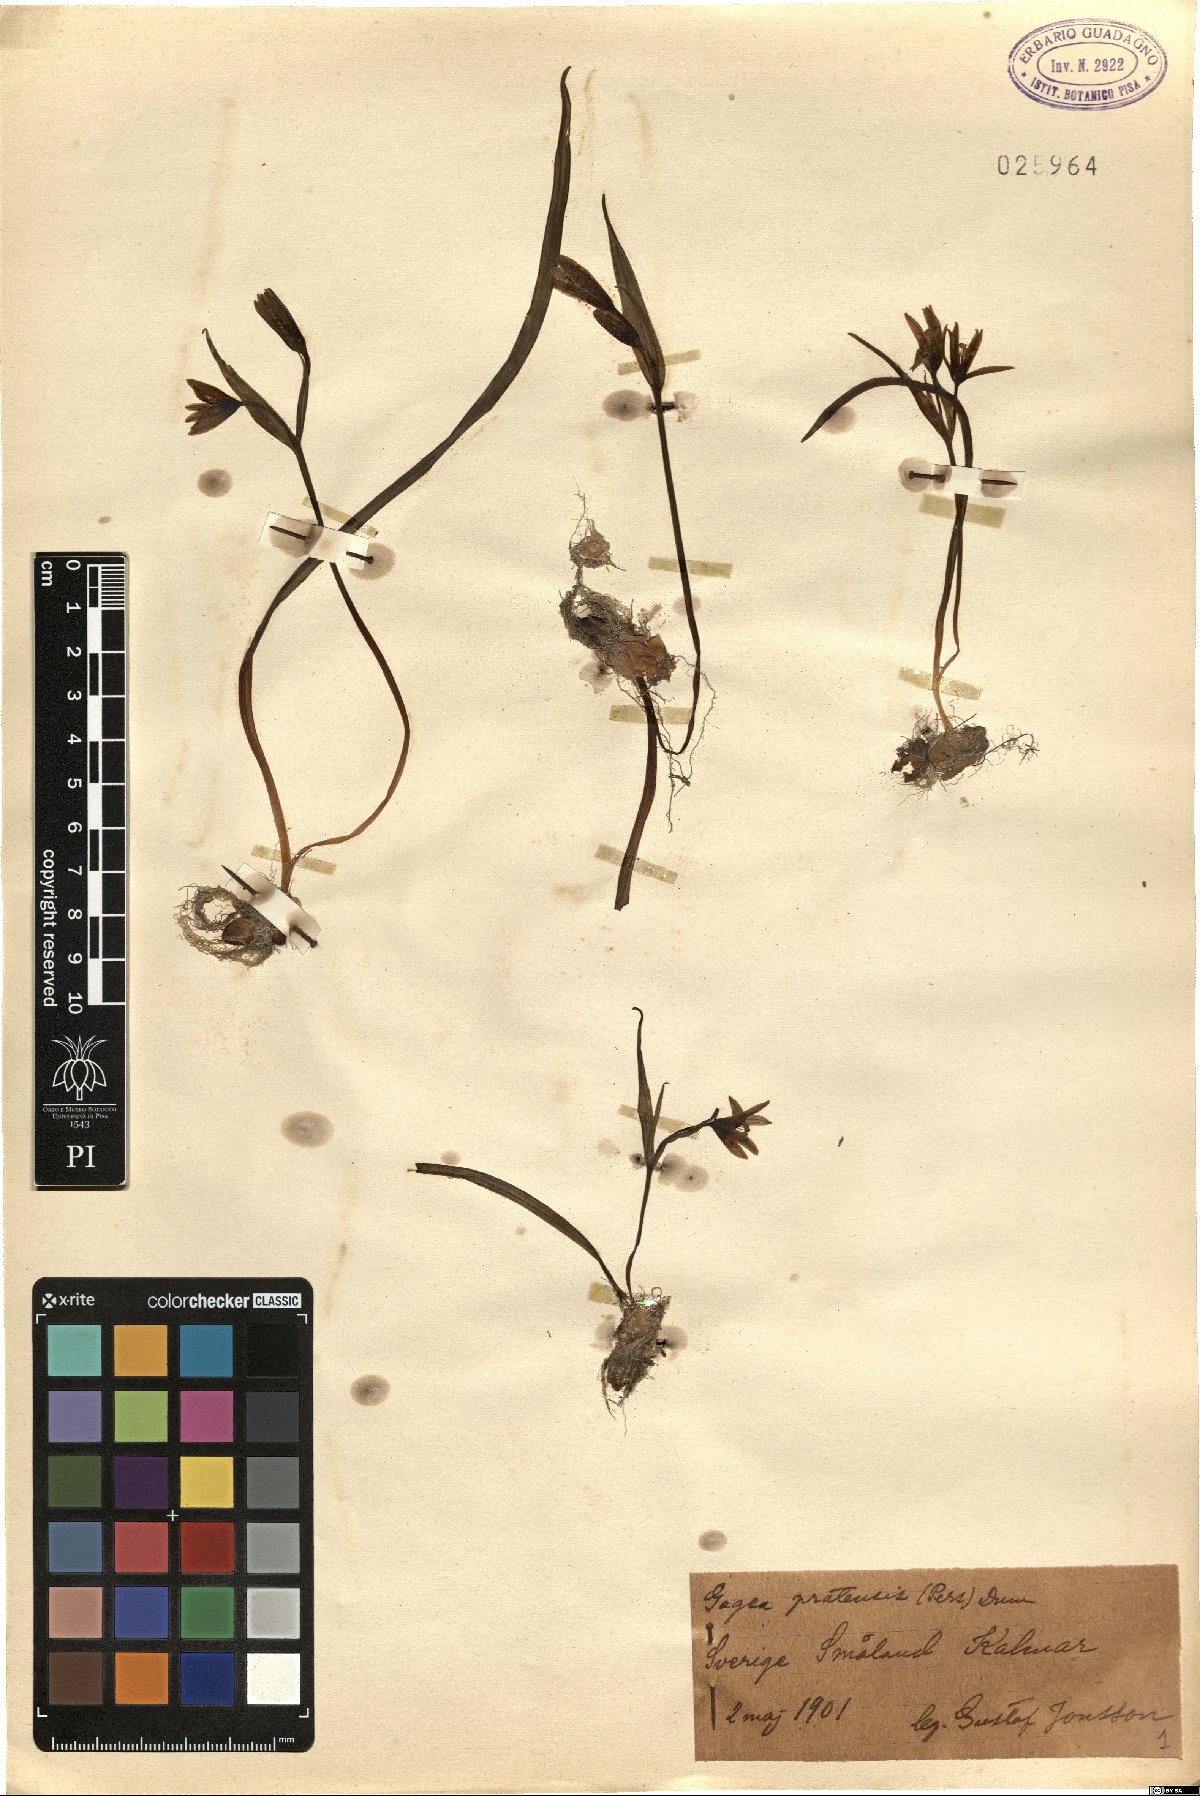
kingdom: Plantae
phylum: Tracheophyta
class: Liliopsida
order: Liliales
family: Liliaceae
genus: Gagea
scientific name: Gagea pratensis
